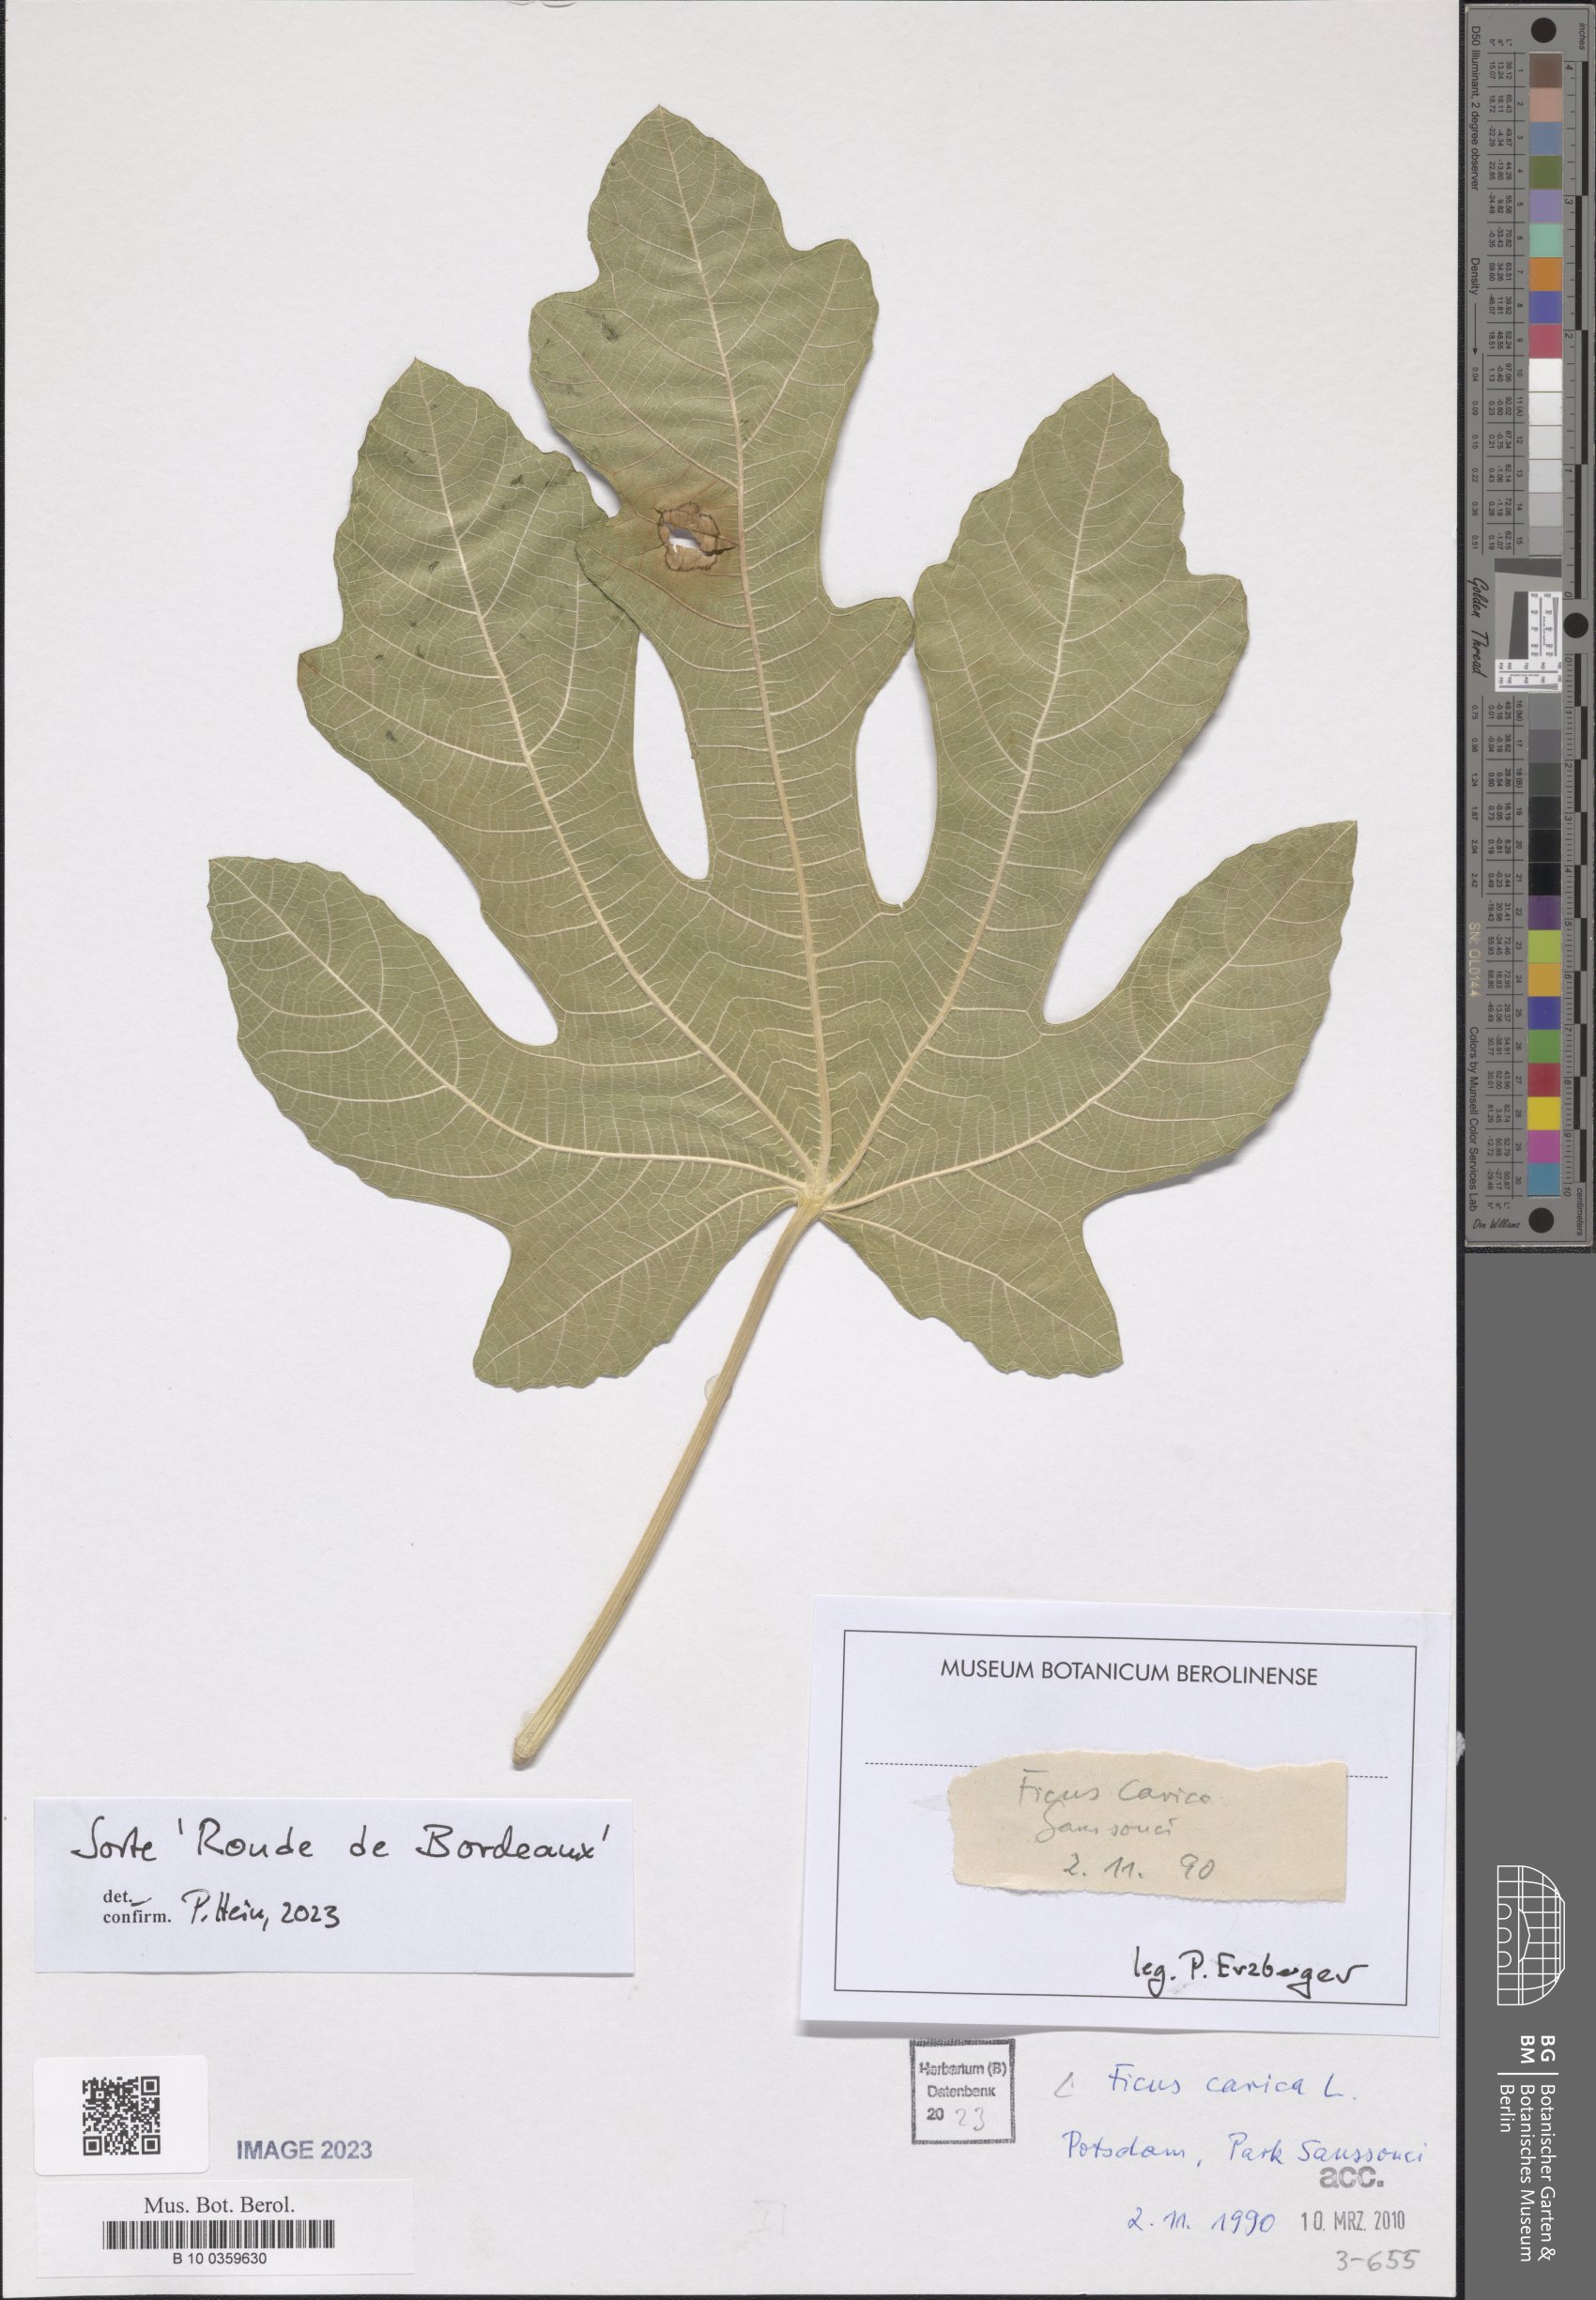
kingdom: Plantae
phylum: Tracheophyta
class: Magnoliopsida
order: Rosales
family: Moraceae
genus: Ficus
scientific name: Ficus carica
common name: Fig
